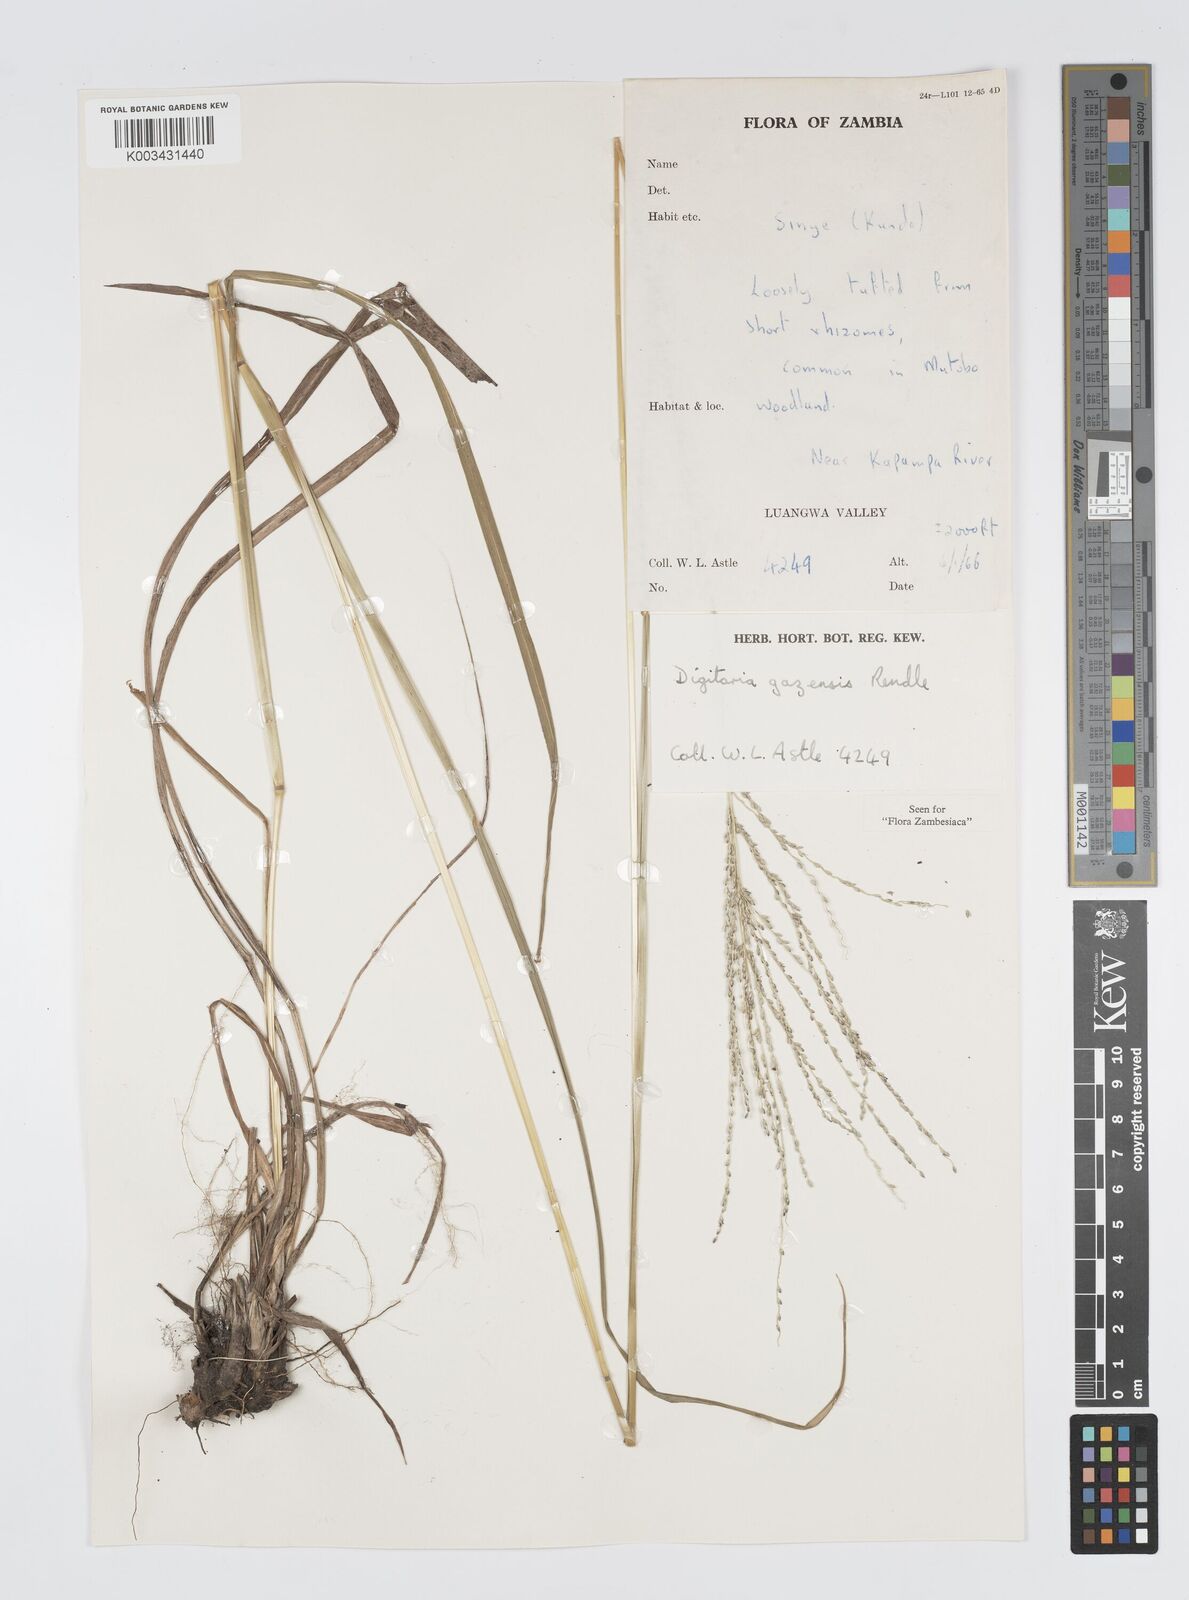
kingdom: Plantae
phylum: Tracheophyta
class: Liliopsida
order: Poales
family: Poaceae
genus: Digitaria
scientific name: Digitaria gazensis
